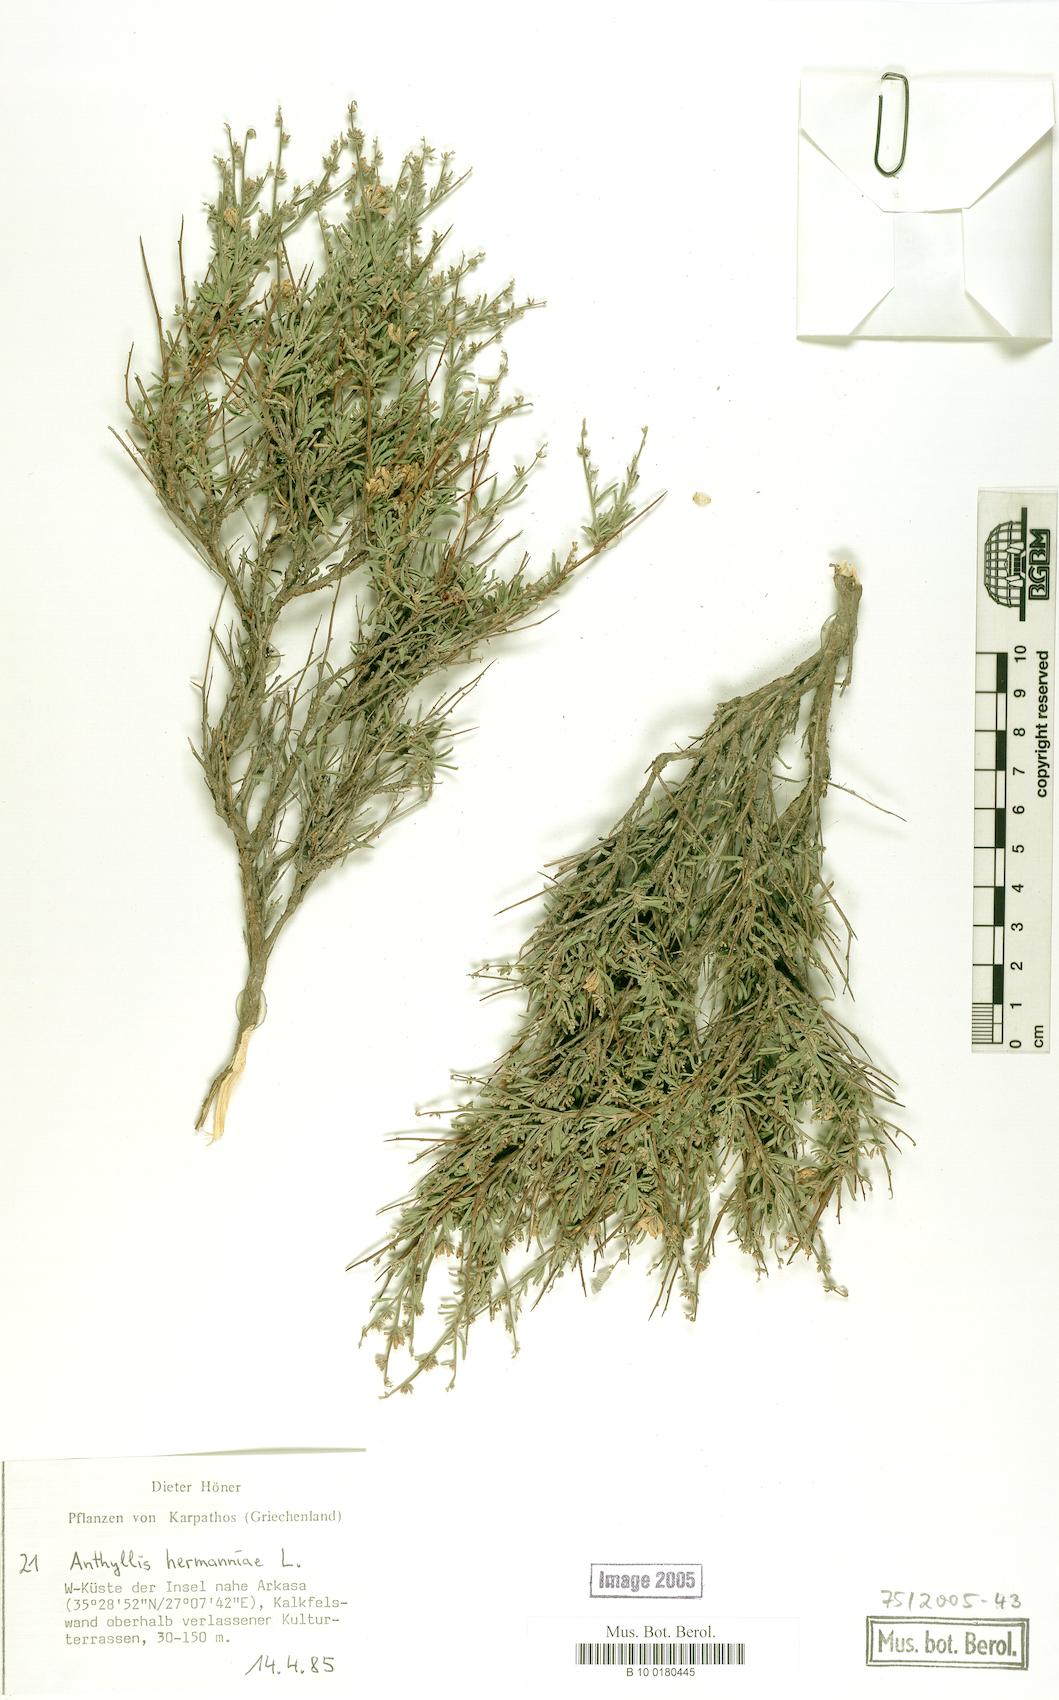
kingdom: Plantae
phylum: Tracheophyta
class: Magnoliopsida
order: Fabales
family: Fabaceae
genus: Anthyllis
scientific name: Anthyllis hermanniae
